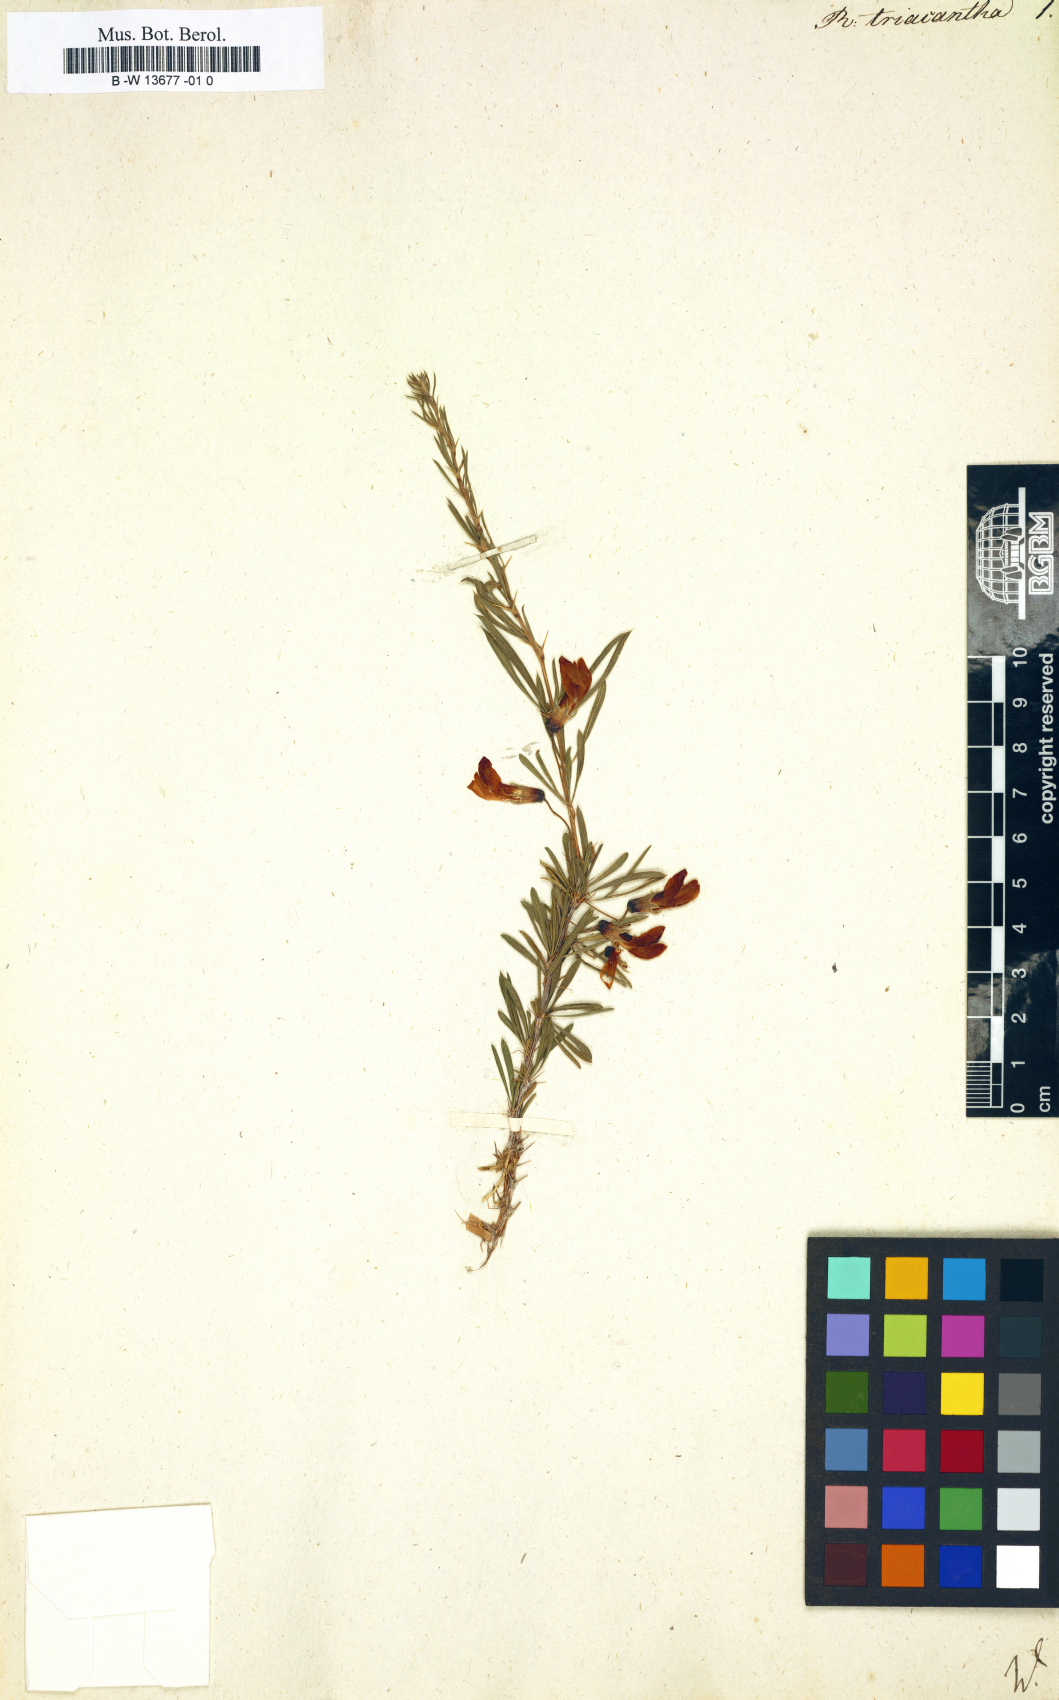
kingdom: Plantae
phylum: Tracheophyta
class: Magnoliopsida
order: Fabales
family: Fabaceae
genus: Robinia
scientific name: Robinia
